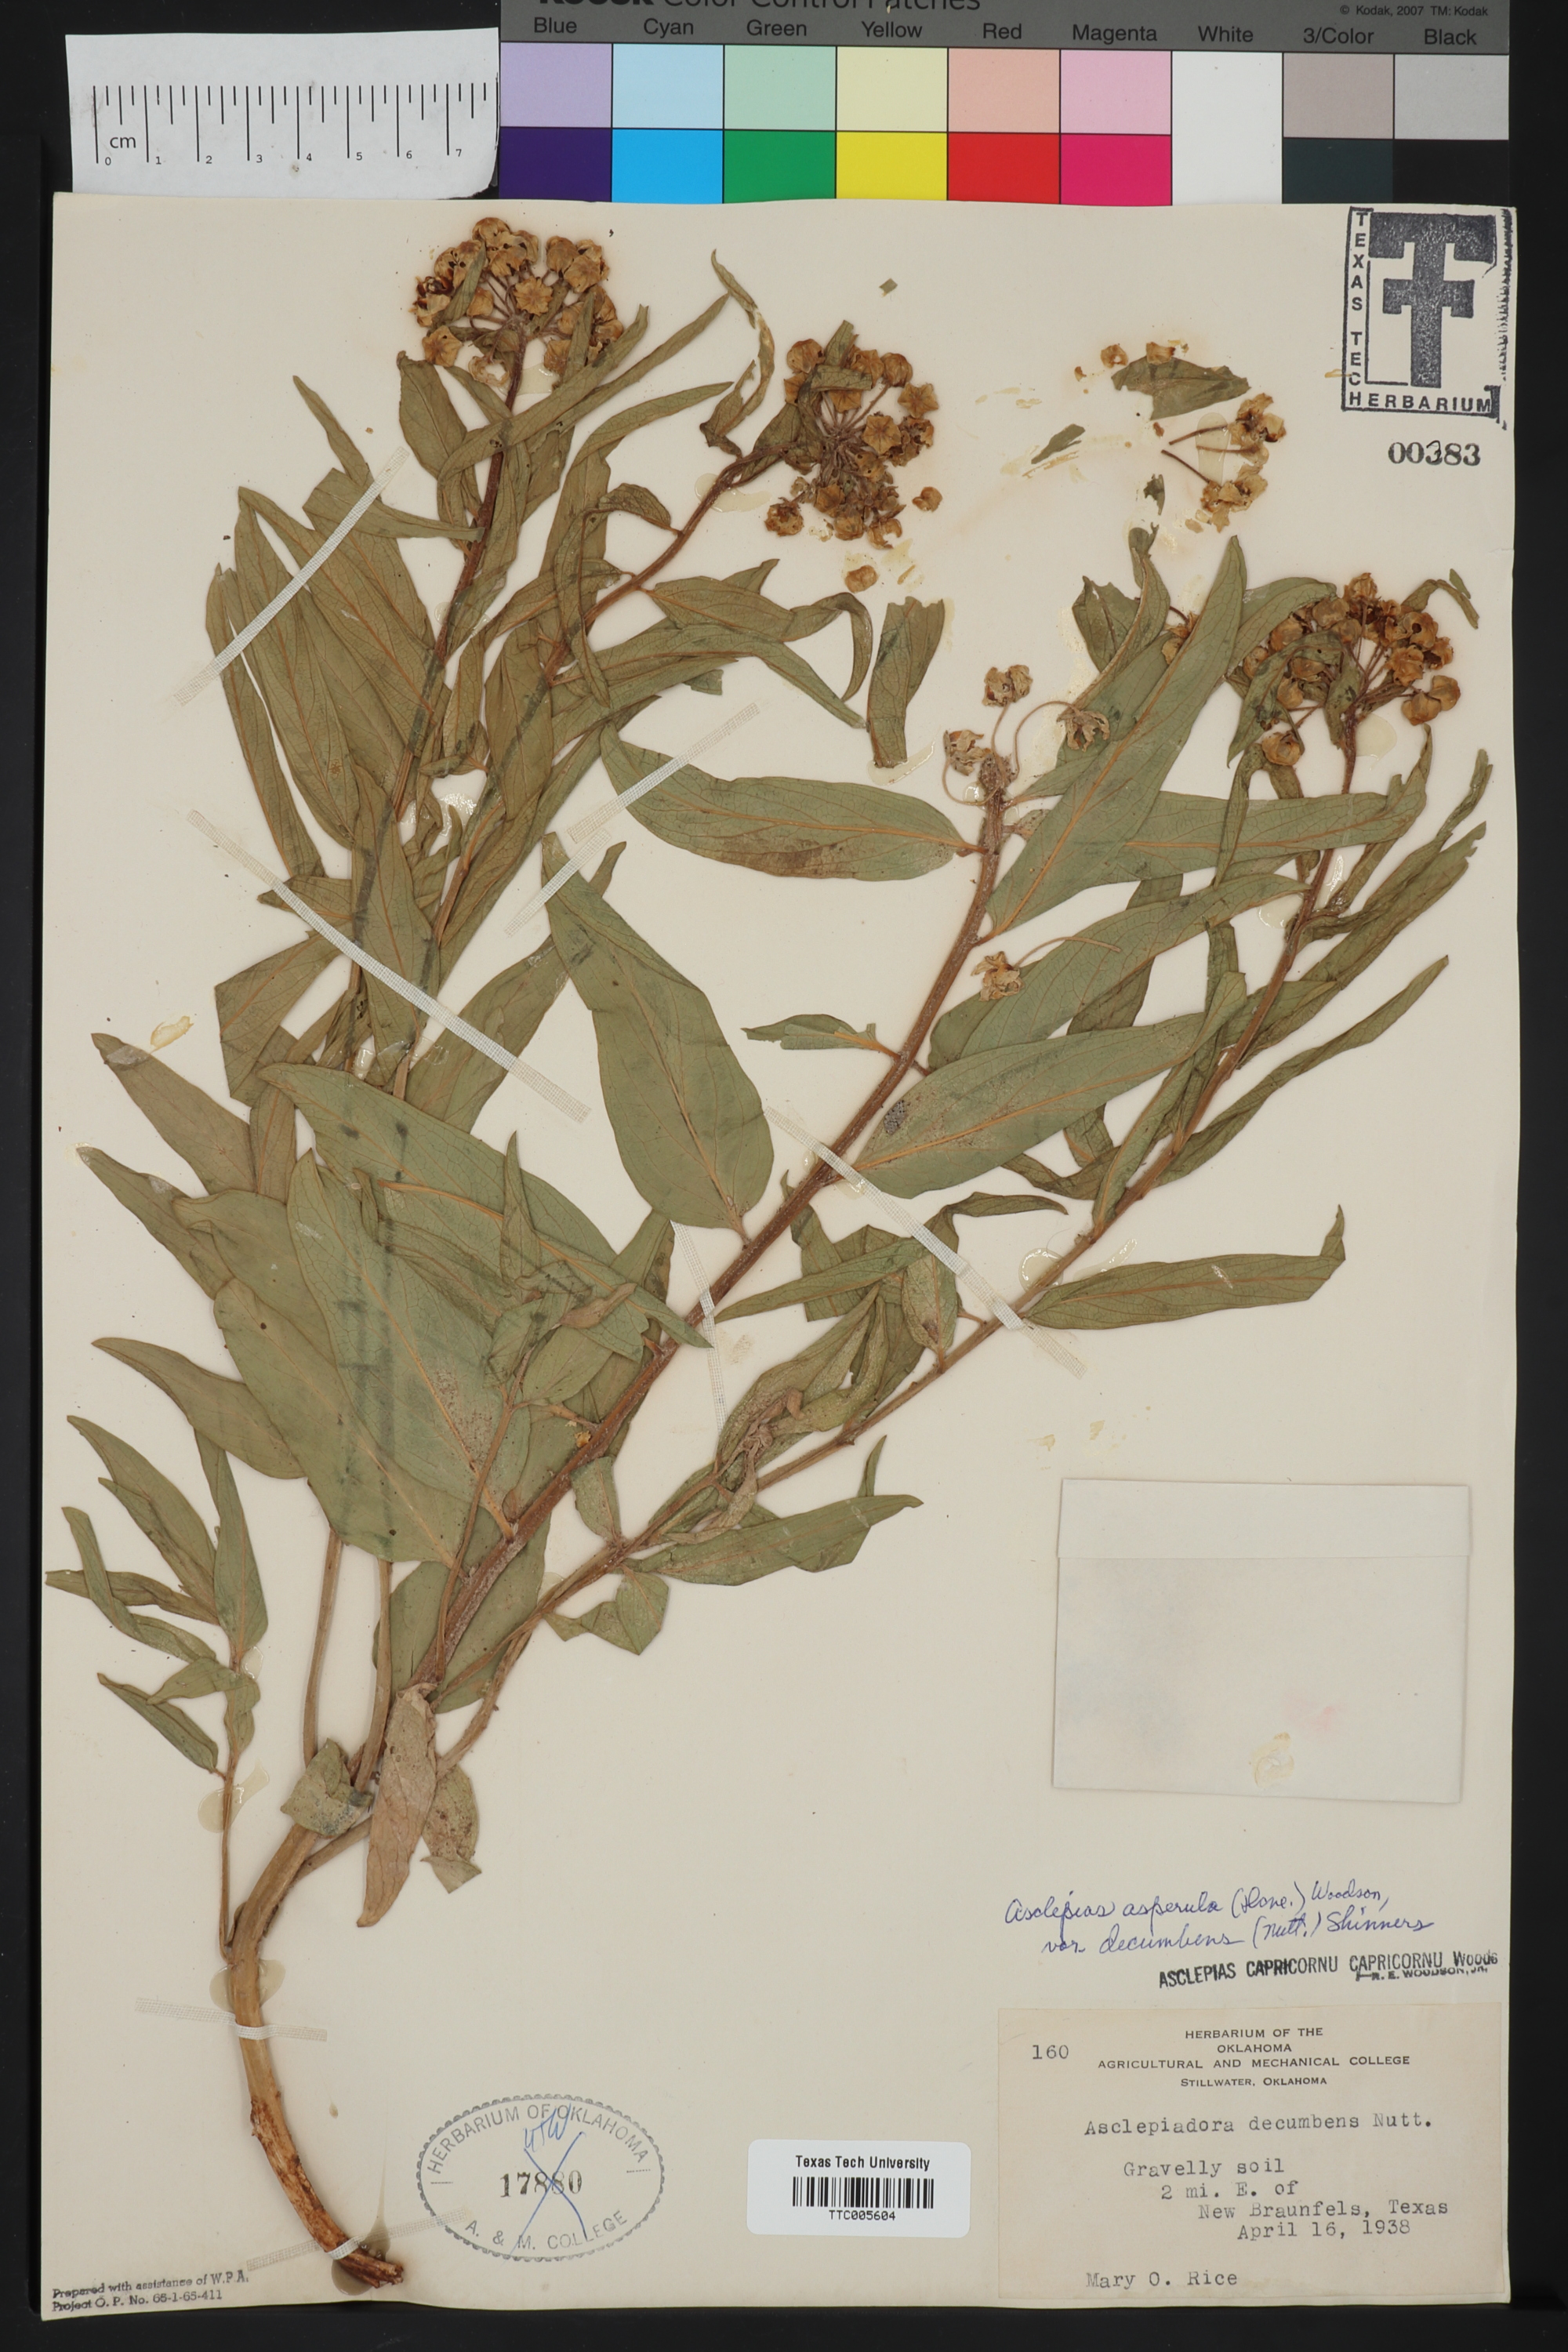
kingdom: Plantae
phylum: Tracheophyta
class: Magnoliopsida
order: Gentianales
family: Apocynaceae
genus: Asclepias
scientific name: Asclepias asperula
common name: Antelope horns
